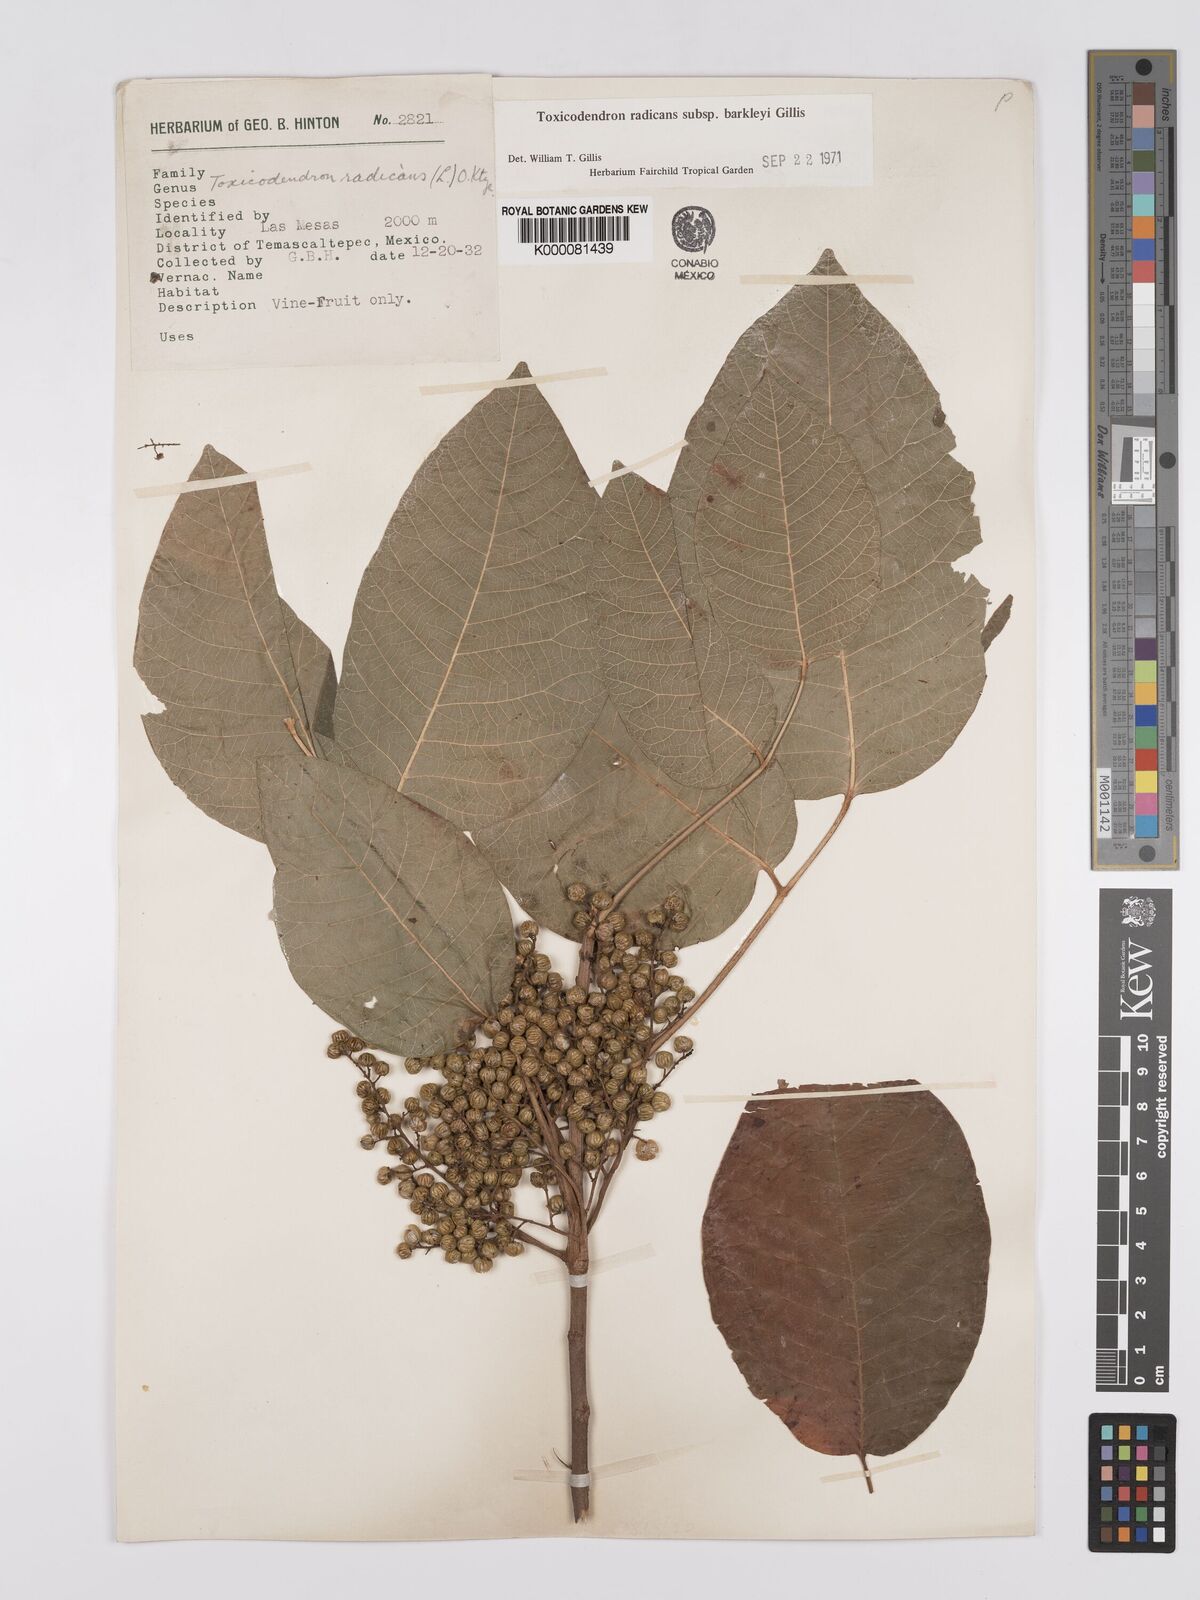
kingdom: Plantae
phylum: Tracheophyta
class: Magnoliopsida
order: Sapindales
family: Anacardiaceae
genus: Toxicodendron
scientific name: Toxicodendron radicans
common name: Poison ivy
